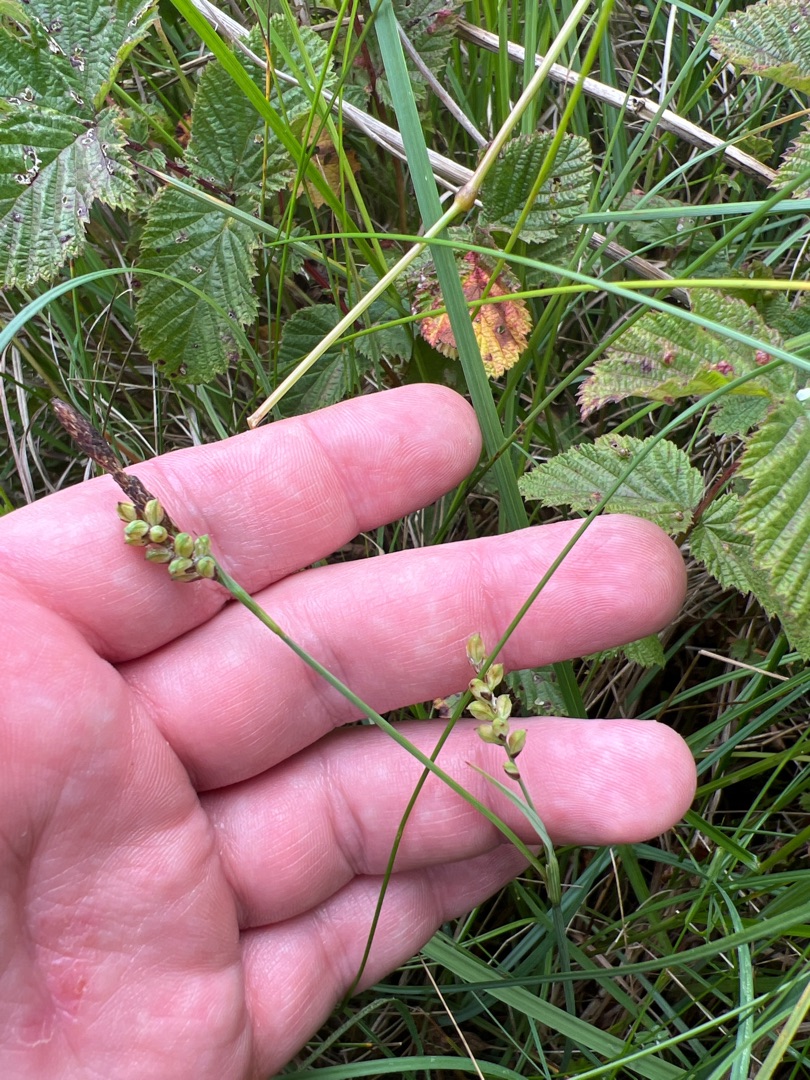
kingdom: Plantae
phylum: Tracheophyta
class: Liliopsida
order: Poales
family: Cyperaceae
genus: Carex
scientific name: Carex panicea
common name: Hirse-star
